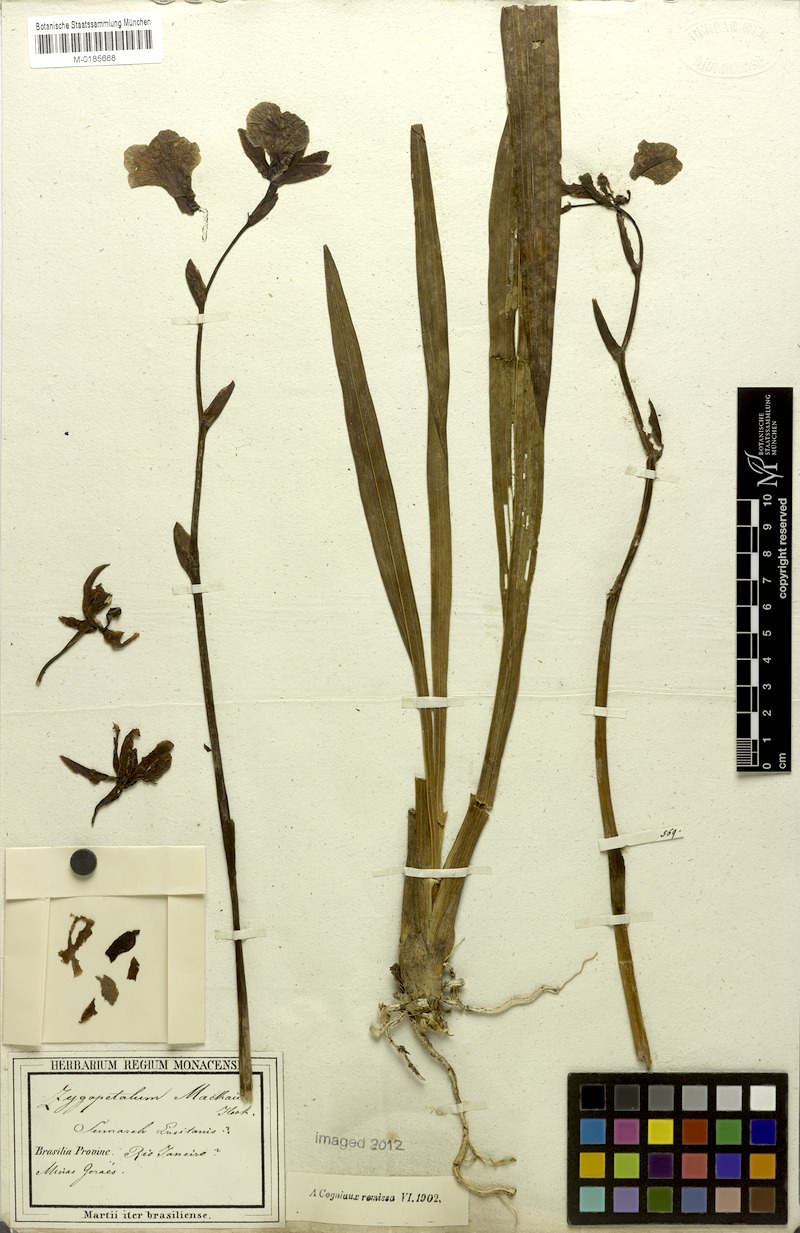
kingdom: Plantae
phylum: Tracheophyta
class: Liliopsida
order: Asparagales
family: Orchidaceae
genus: Zygopetalum
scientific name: Zygopetalum maculatum
